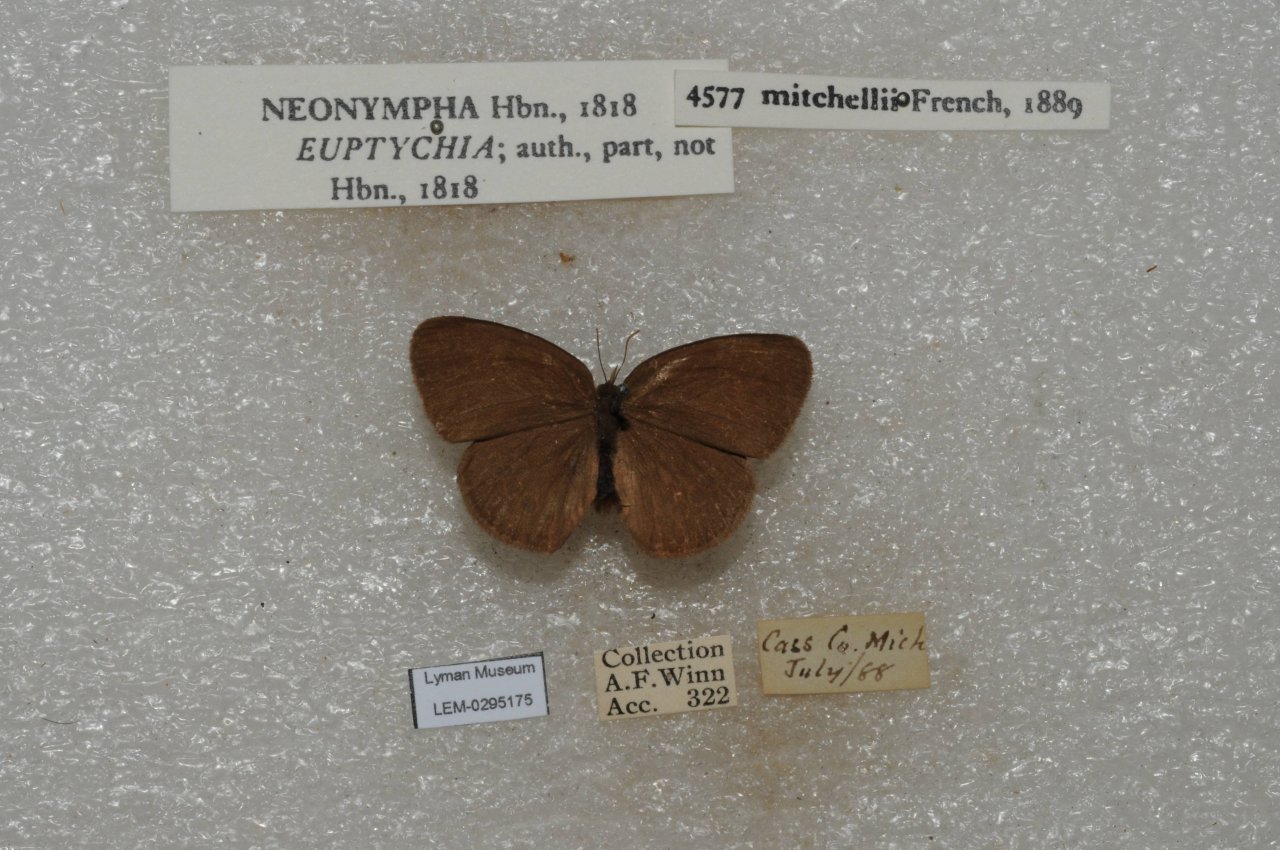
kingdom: Animalia
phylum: Arthropoda
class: Insecta
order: Lepidoptera
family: Nymphalidae
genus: Euptychia
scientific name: Euptychia Neonympha mitchellii
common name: Mitchell's Satyr
